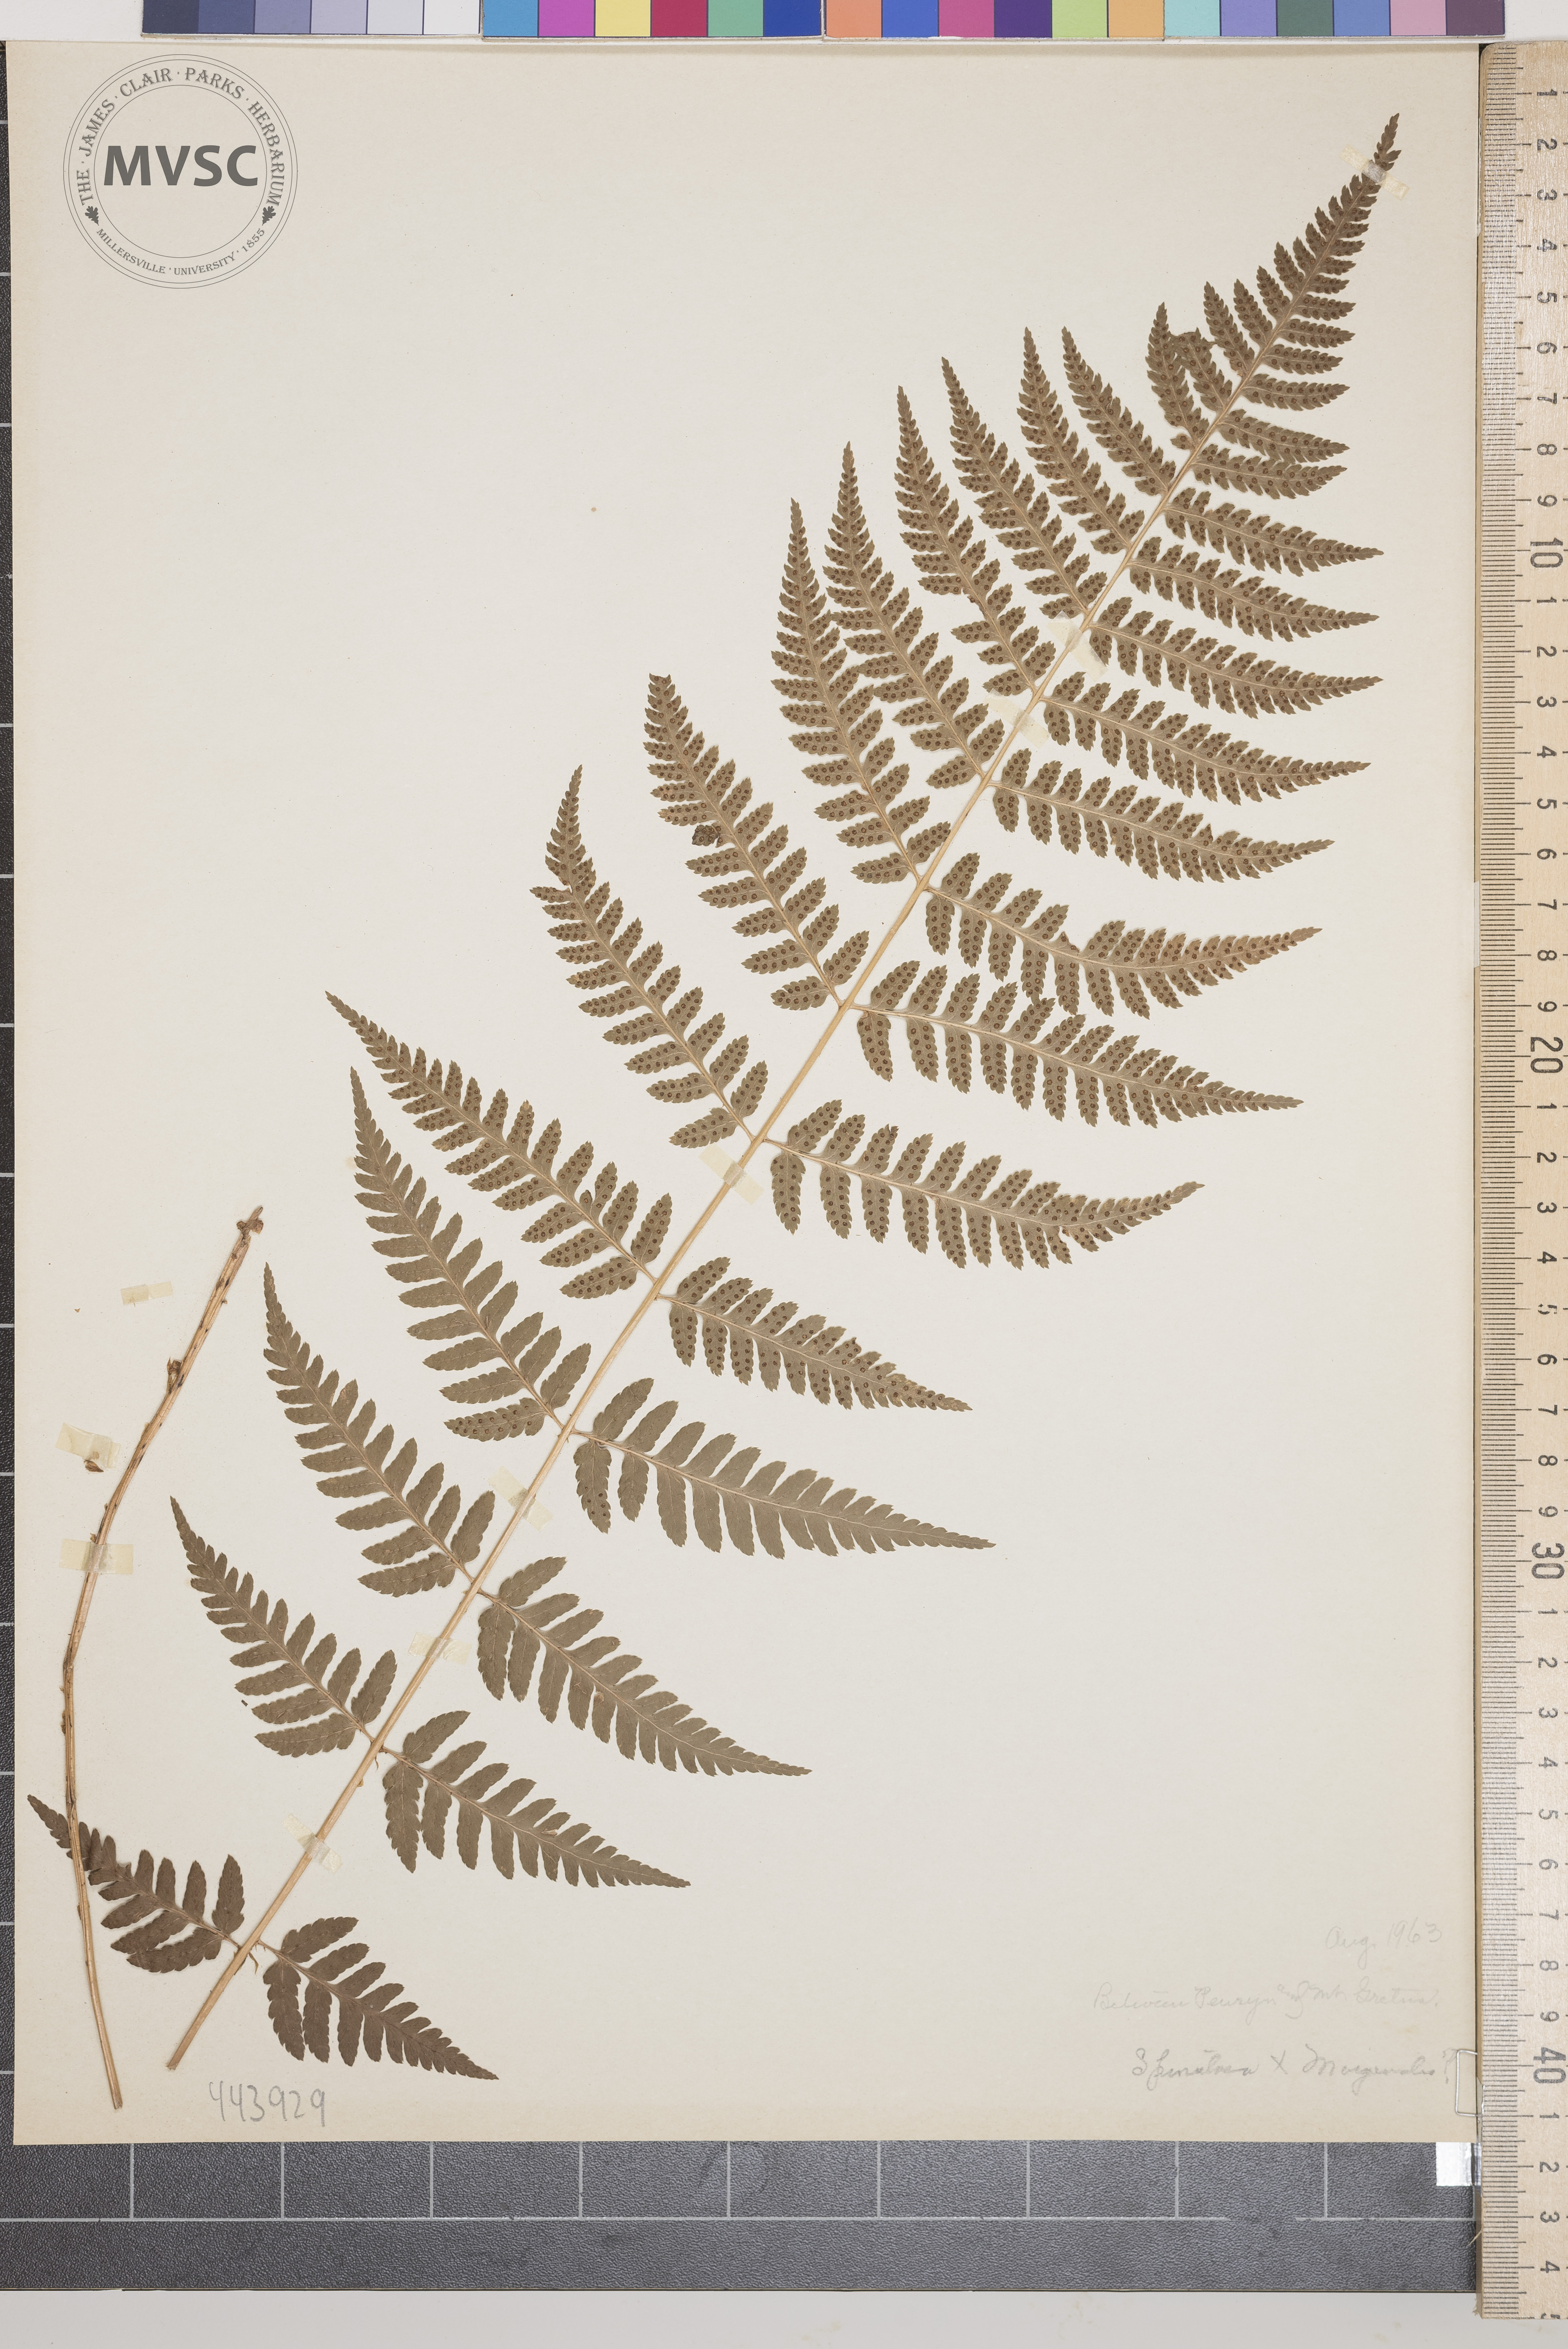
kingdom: Plantae
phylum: Tracheophyta
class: Polypodiopsida
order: Polypodiales
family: Dryopteridaceae
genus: Dryopteris
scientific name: Dryopteris
